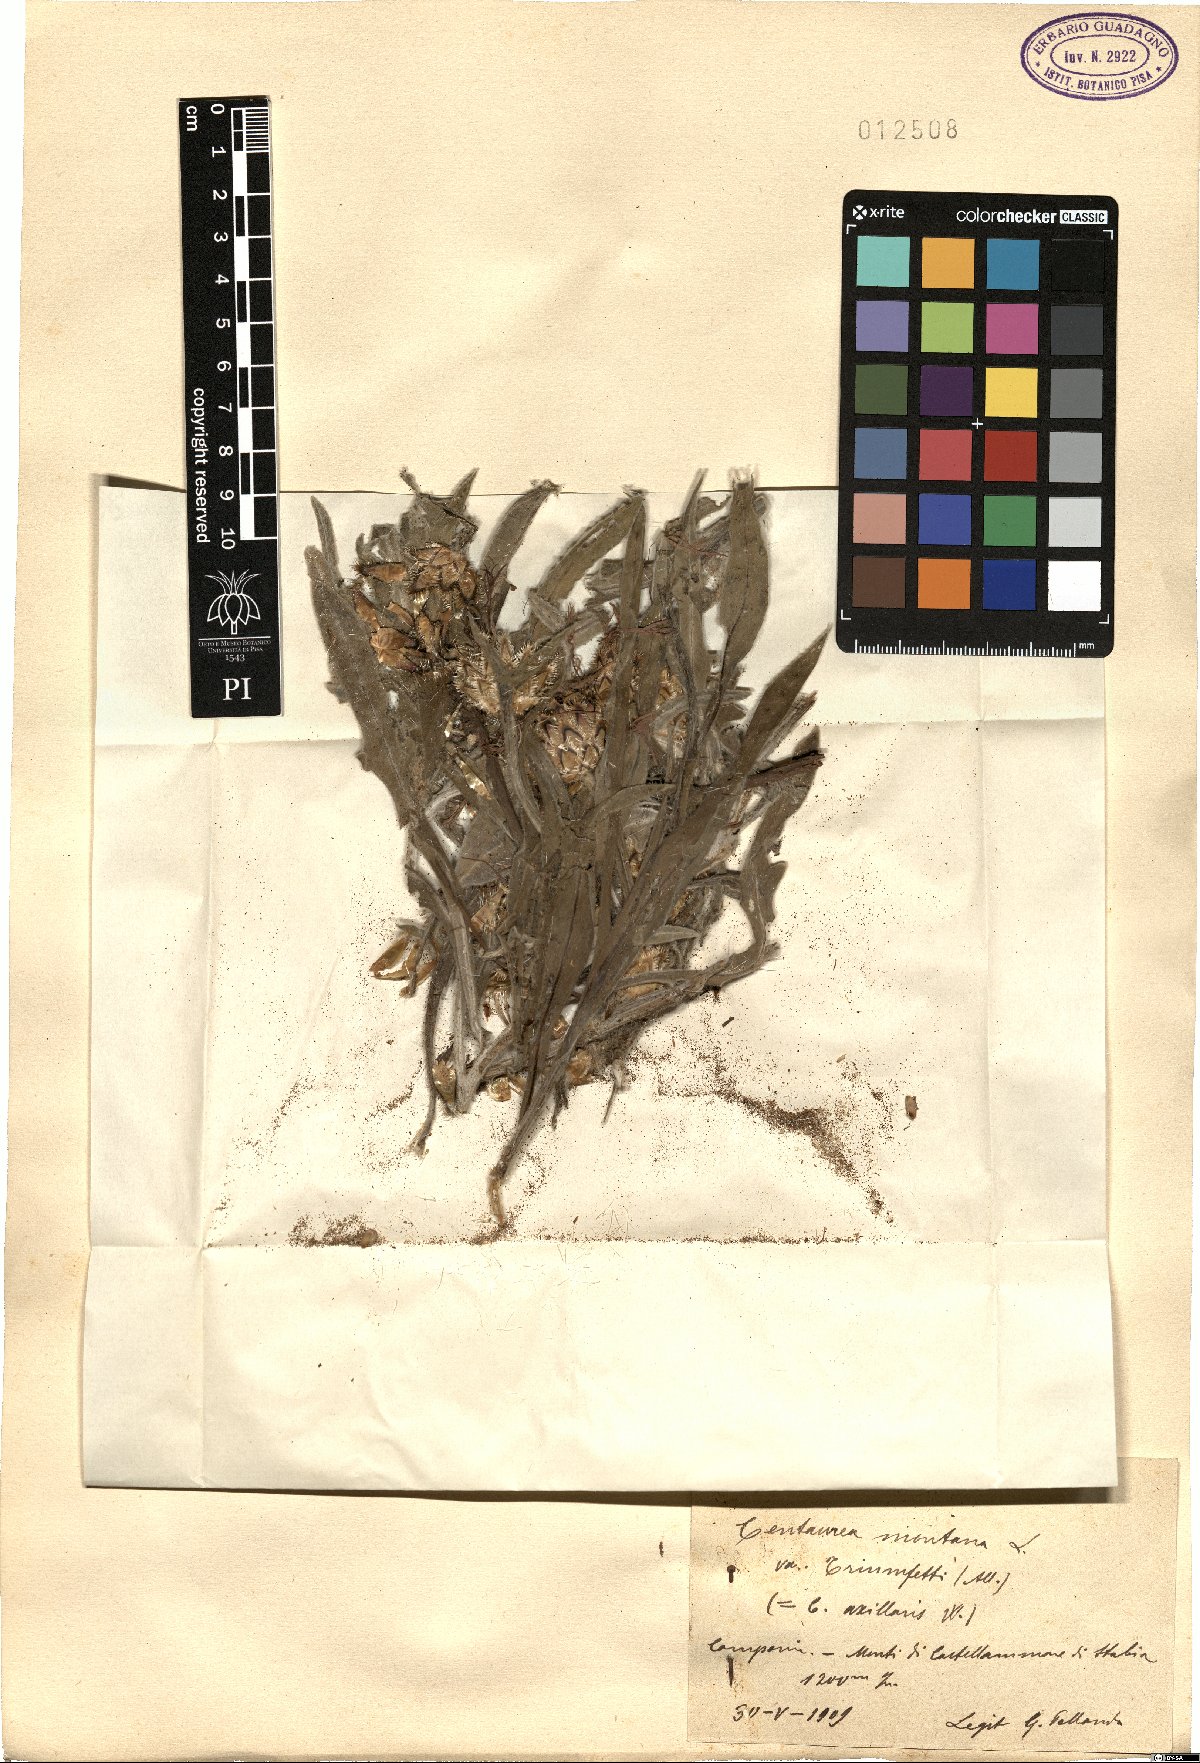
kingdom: Plantae
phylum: Tracheophyta
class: Magnoliopsida
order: Asterales
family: Asteraceae
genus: Centaurea
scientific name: Centaurea montana
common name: Perennial cornflower
